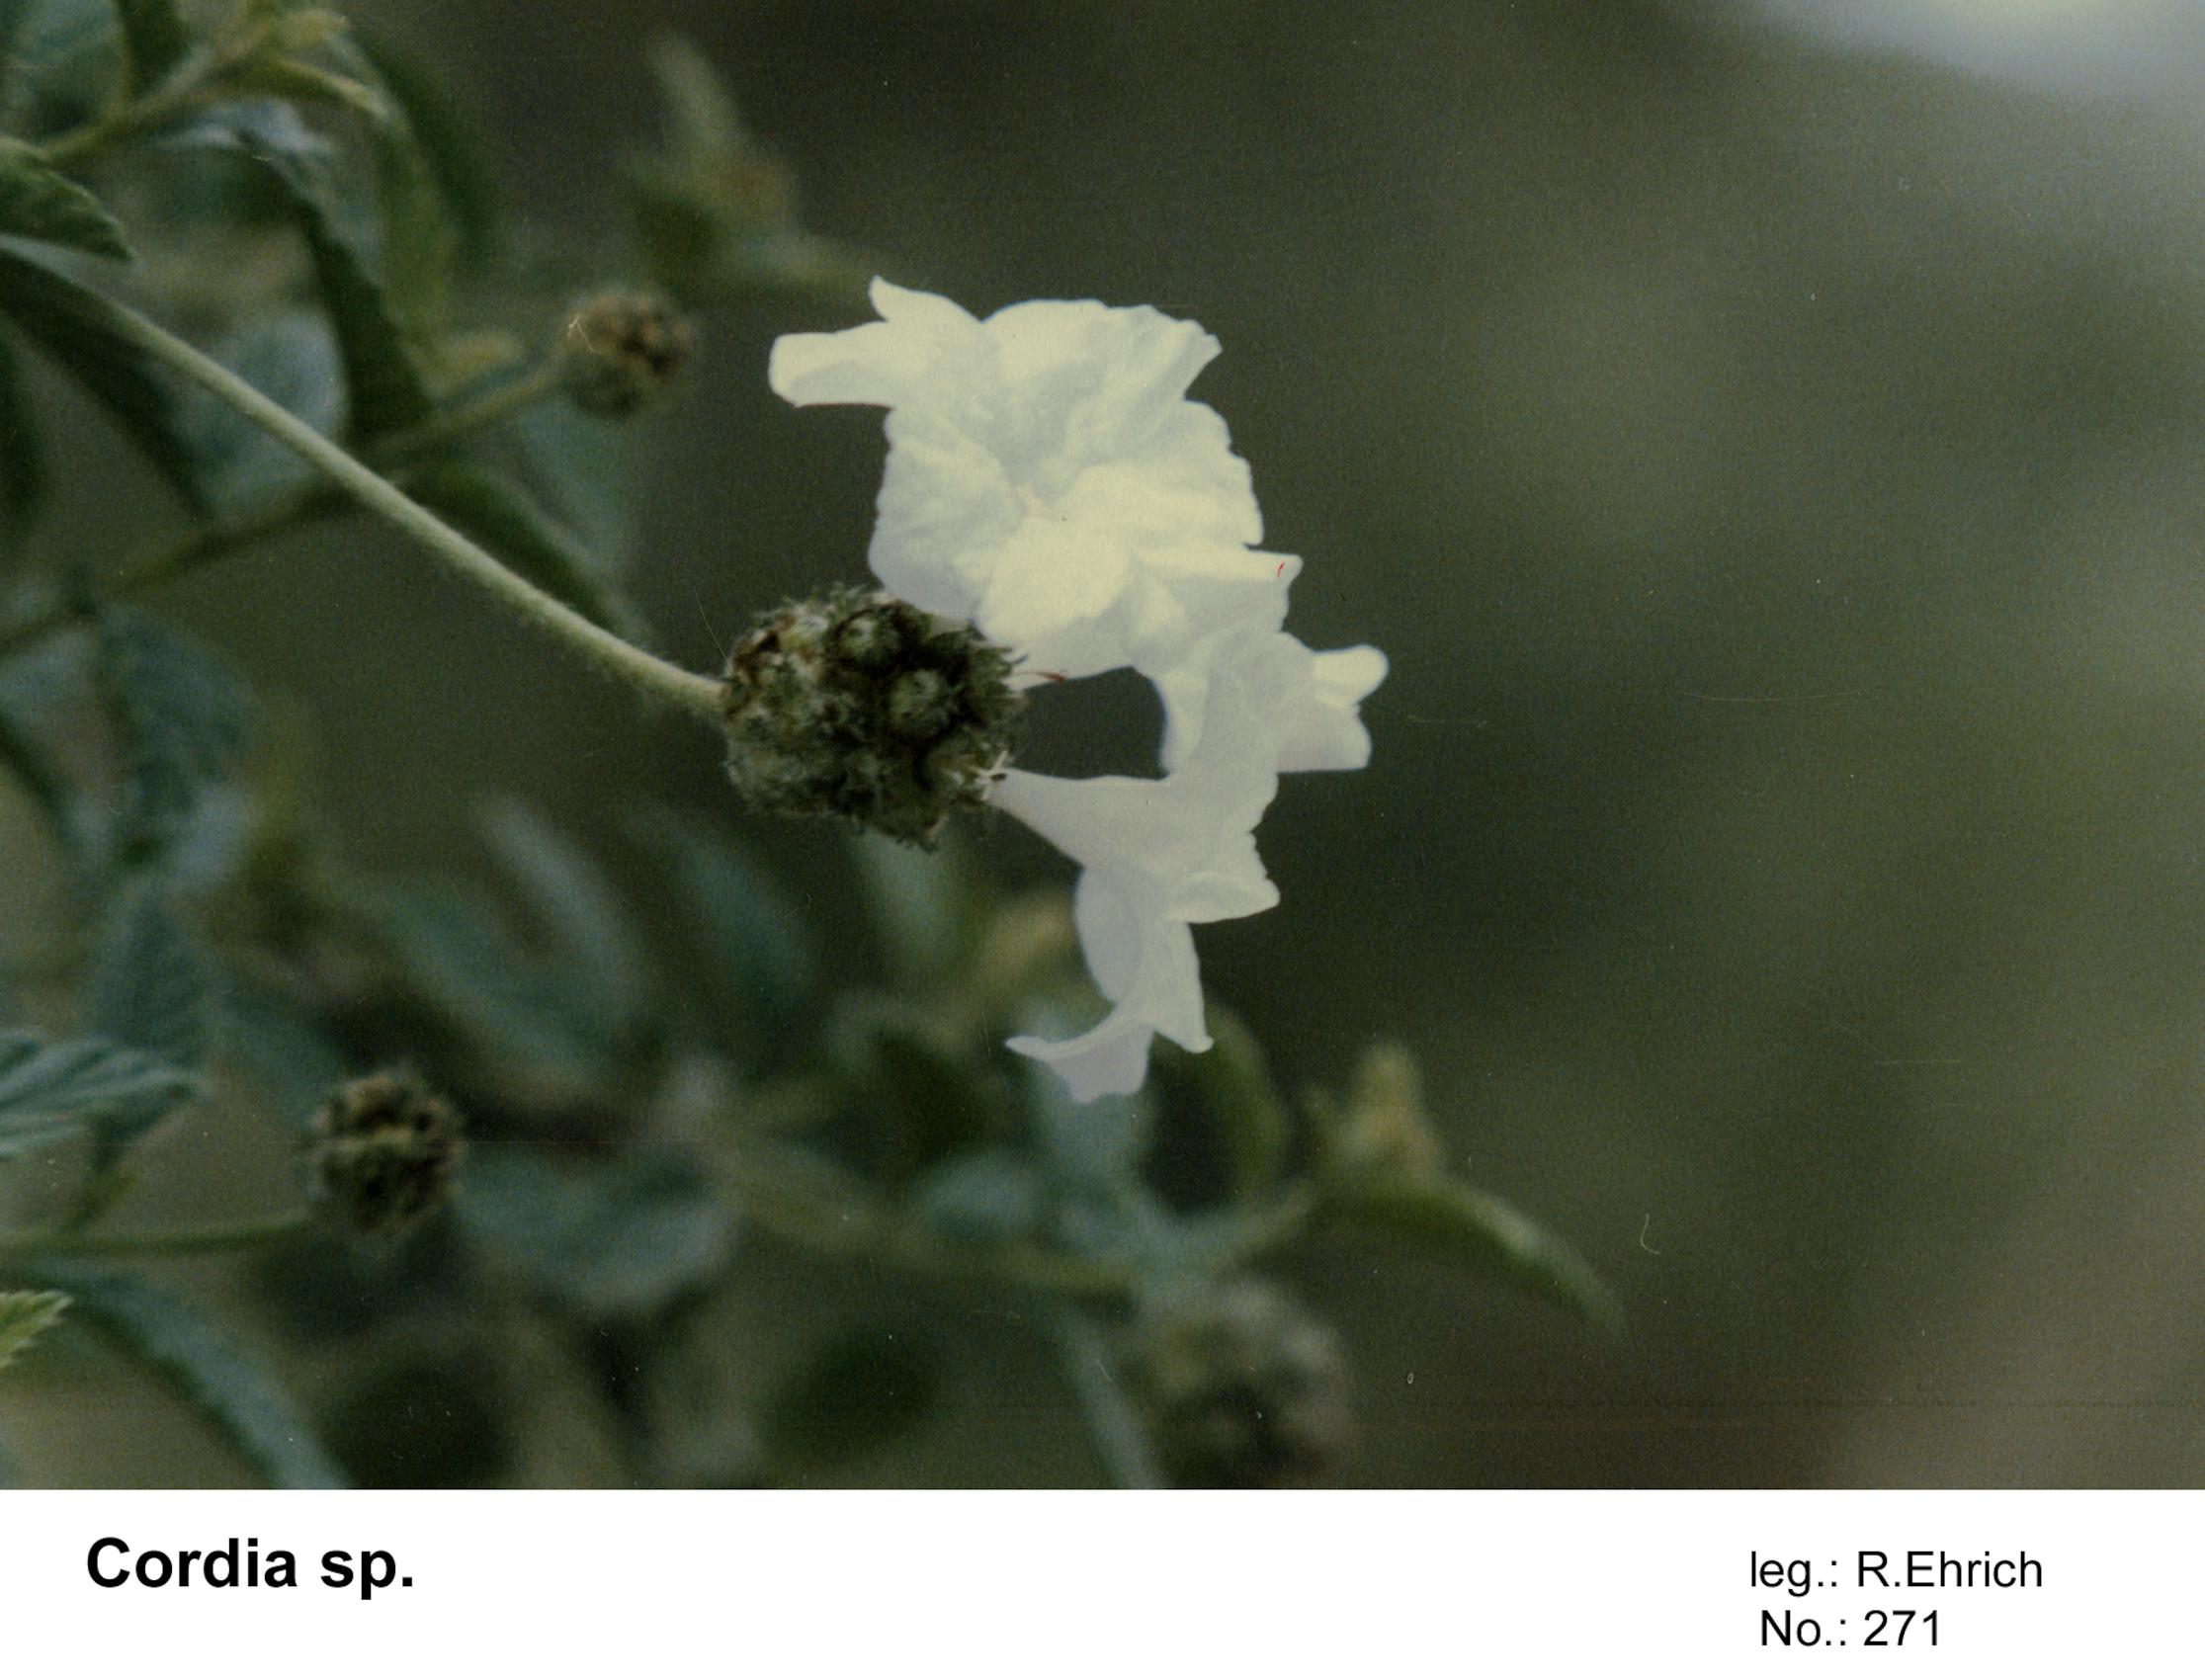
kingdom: Plantae
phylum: Tracheophyta
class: Magnoliopsida
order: Boraginales
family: Cordiaceae
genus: Varronia
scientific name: Varronia lantanifolia
